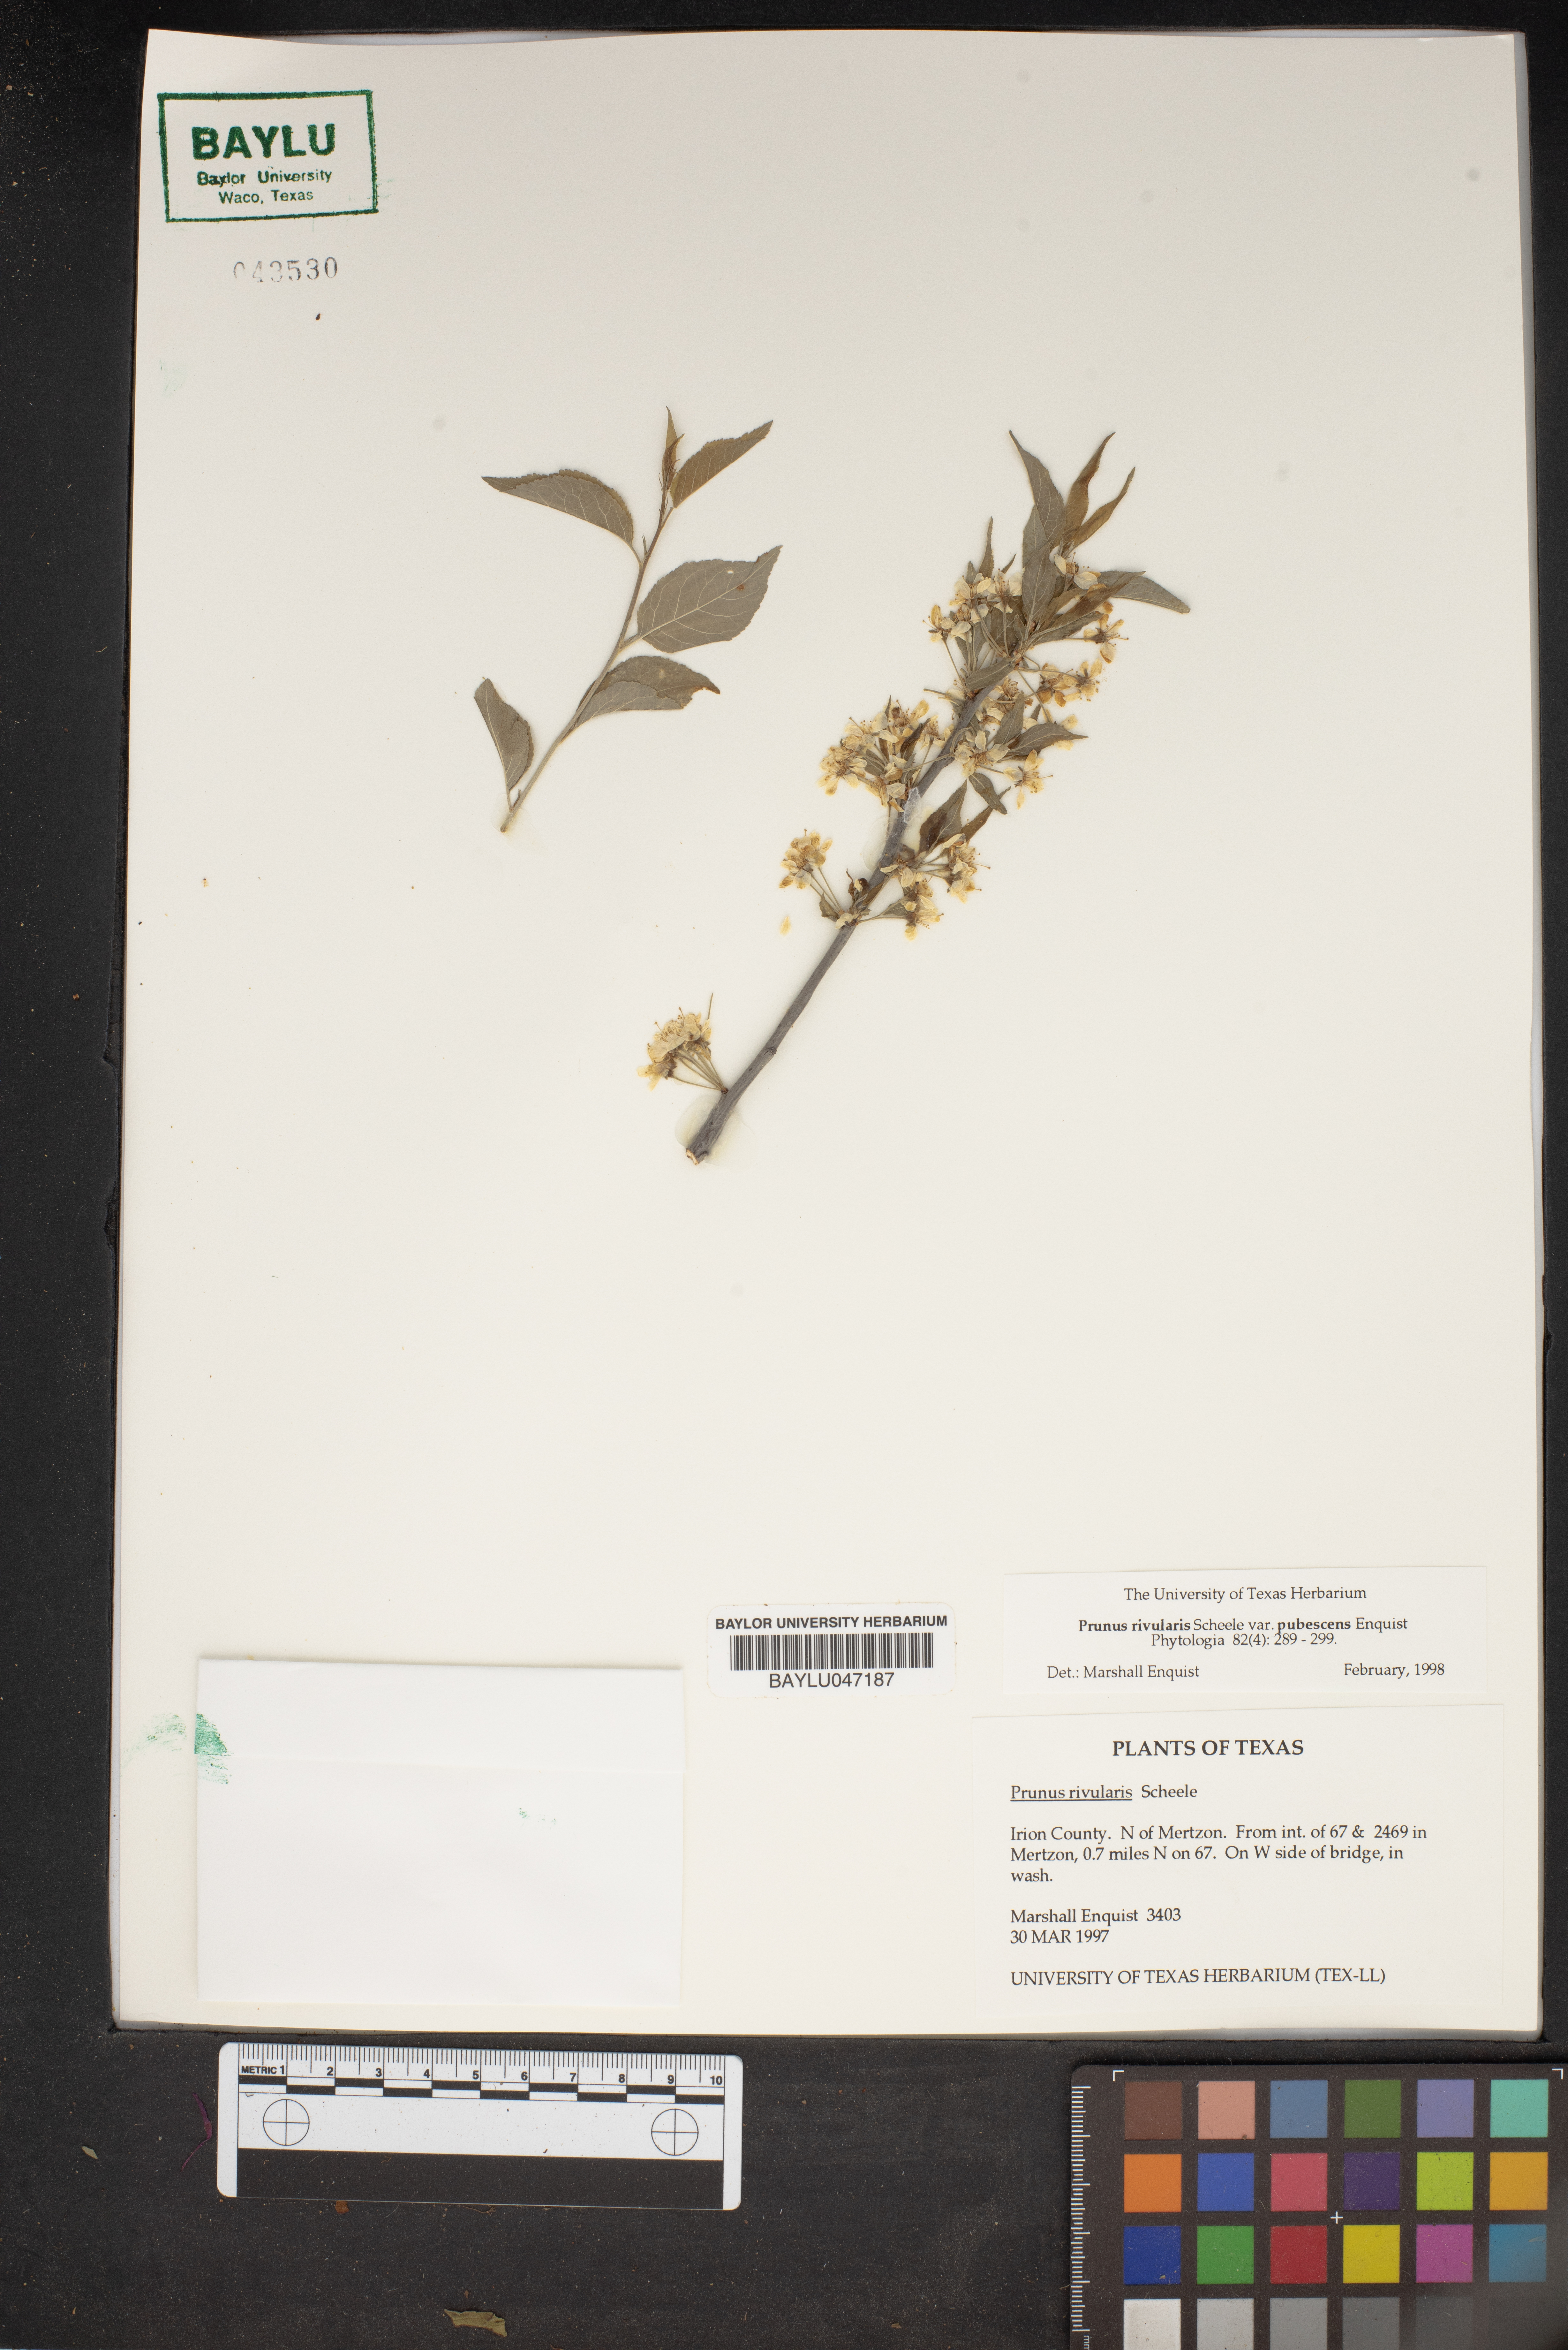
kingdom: Plantae
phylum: Tracheophyta
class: Magnoliopsida
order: Rosales
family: Rosaceae
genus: Prunus
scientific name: Prunus rivularis
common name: Creek plum
